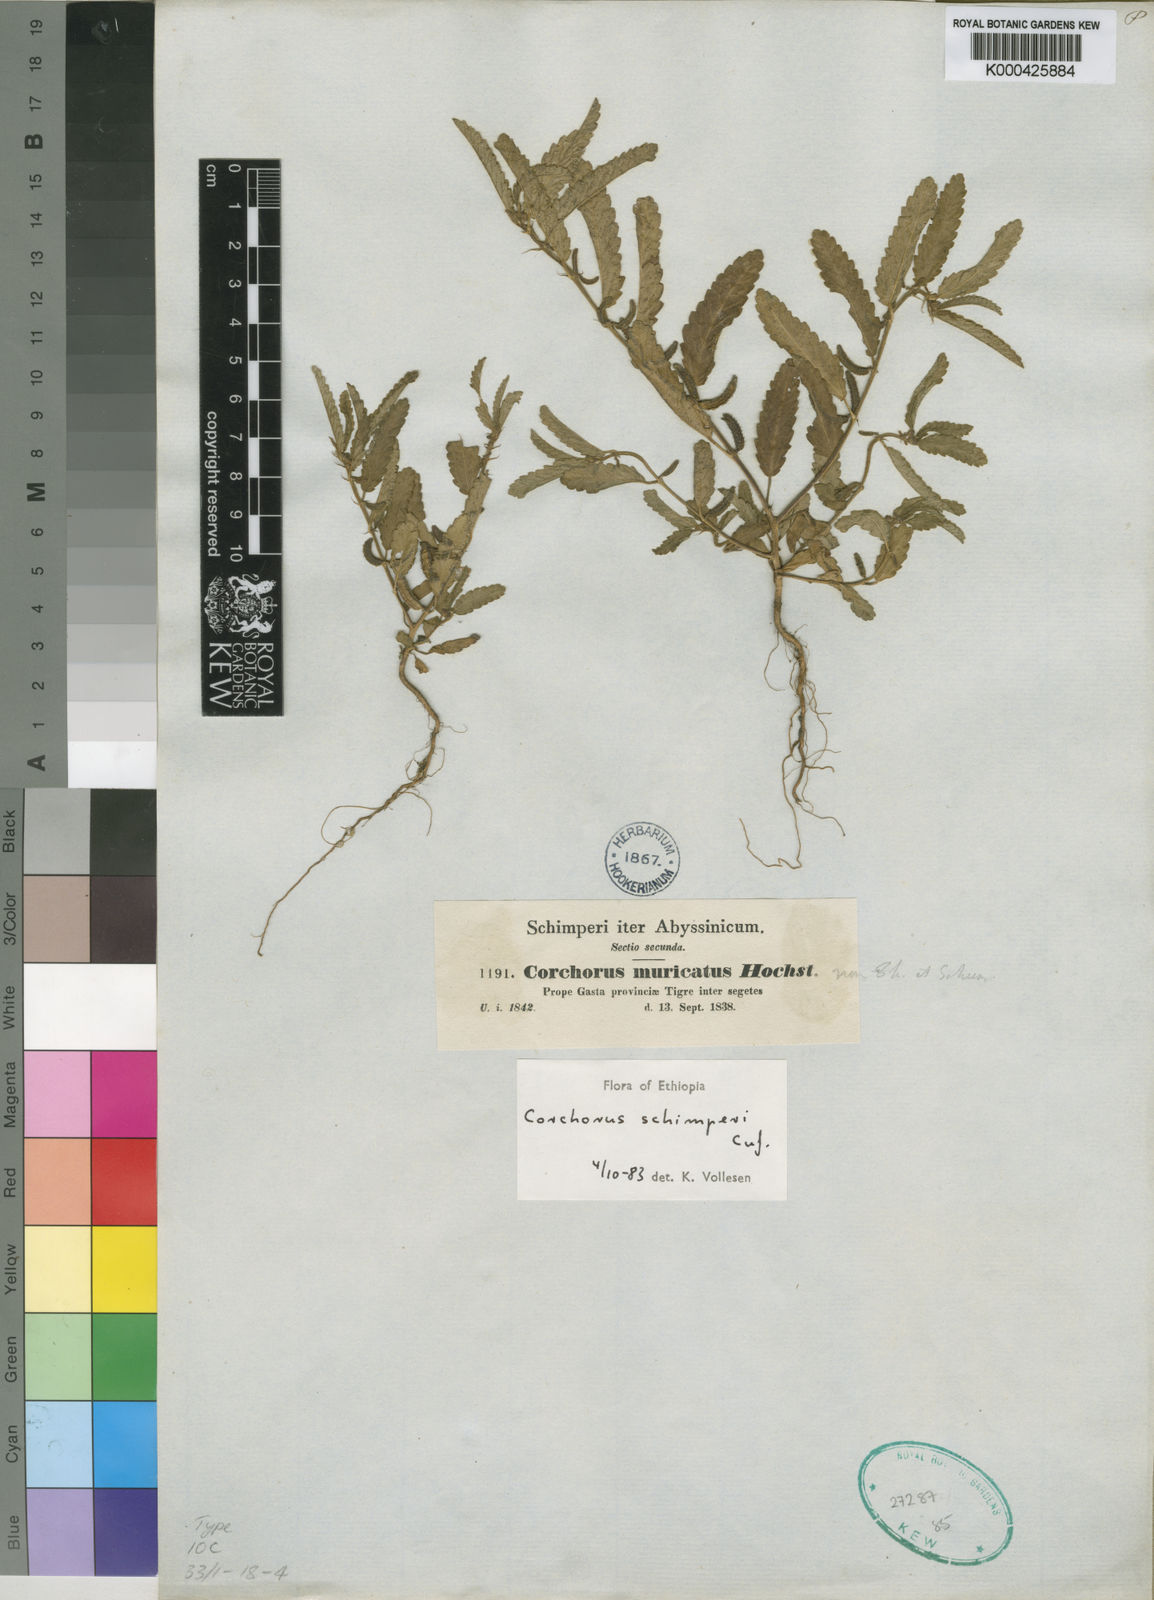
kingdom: Plantae
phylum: Tracheophyta
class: Magnoliopsida
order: Malvales
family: Malvaceae
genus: Corchorus
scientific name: Corchorus
